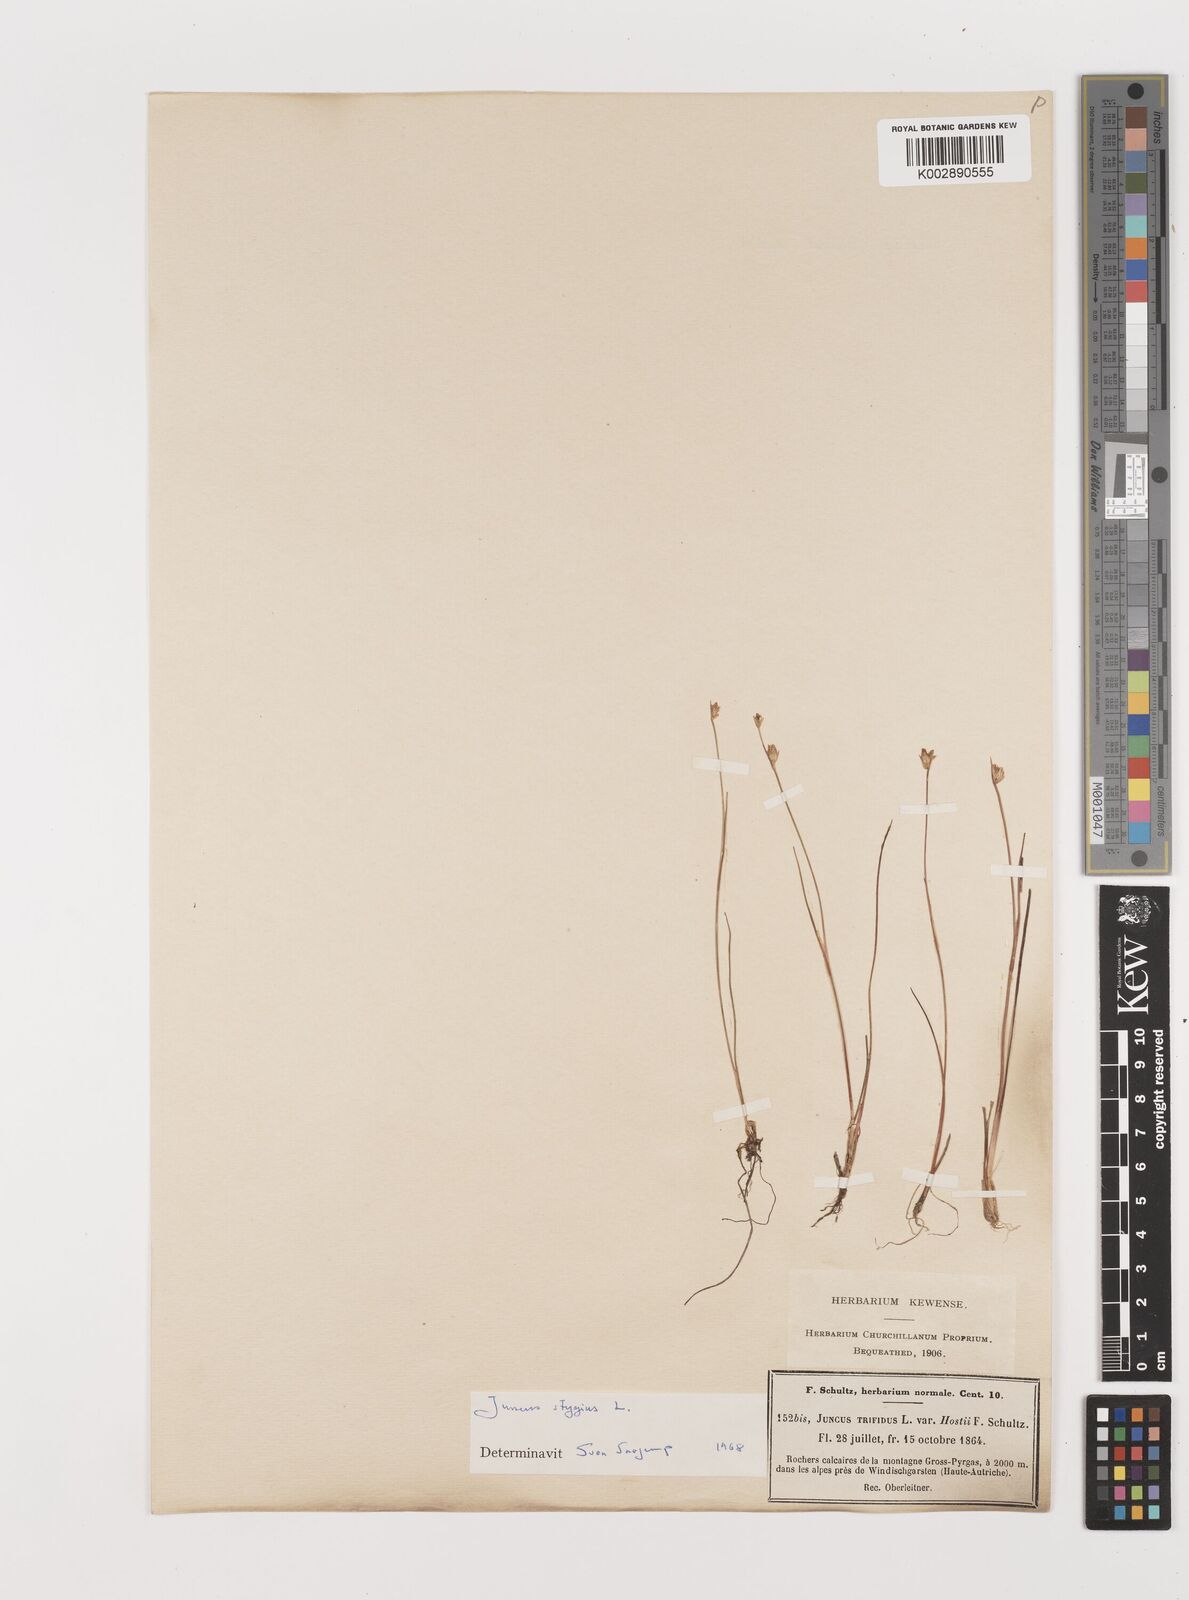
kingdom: Plantae
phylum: Tracheophyta
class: Liliopsida
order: Poales
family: Juncaceae
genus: Juncus
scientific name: Juncus stygius
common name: Bog rush
